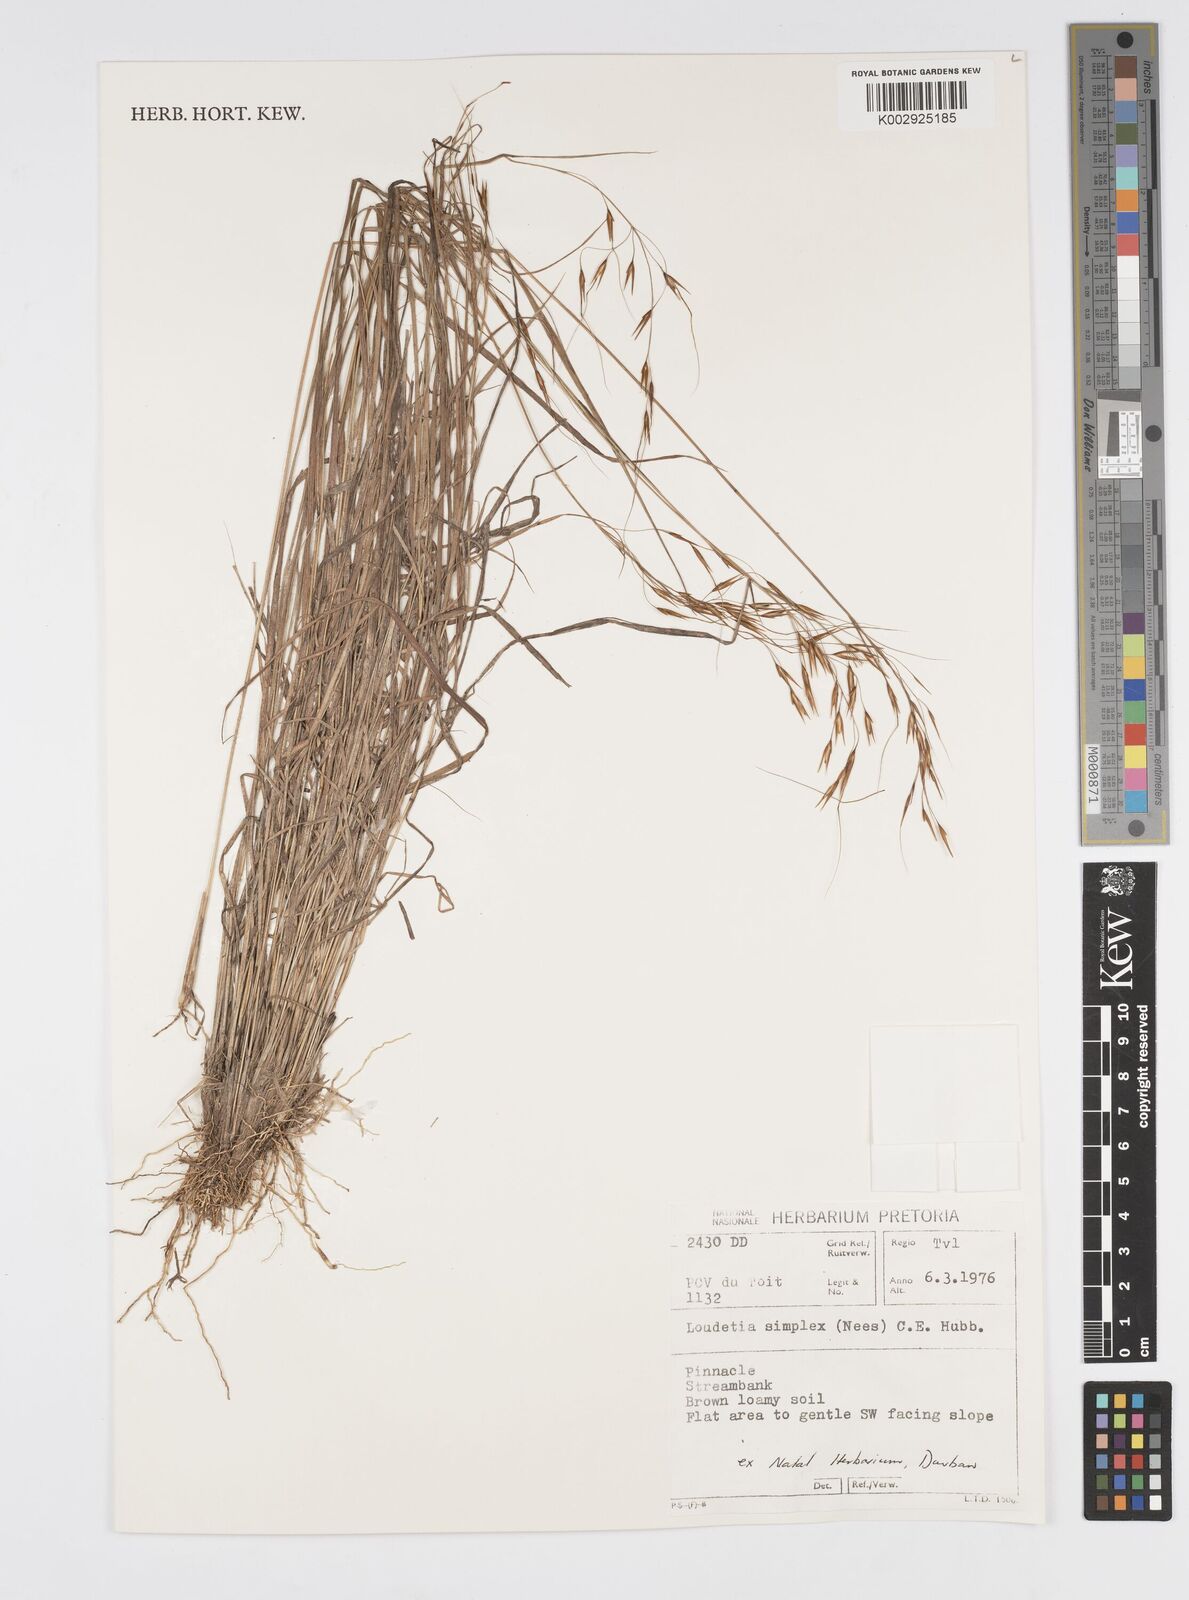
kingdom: Plantae
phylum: Tracheophyta
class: Liliopsida
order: Poales
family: Poaceae
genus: Loudetia
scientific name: Loudetia simplex
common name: Common russet grass
